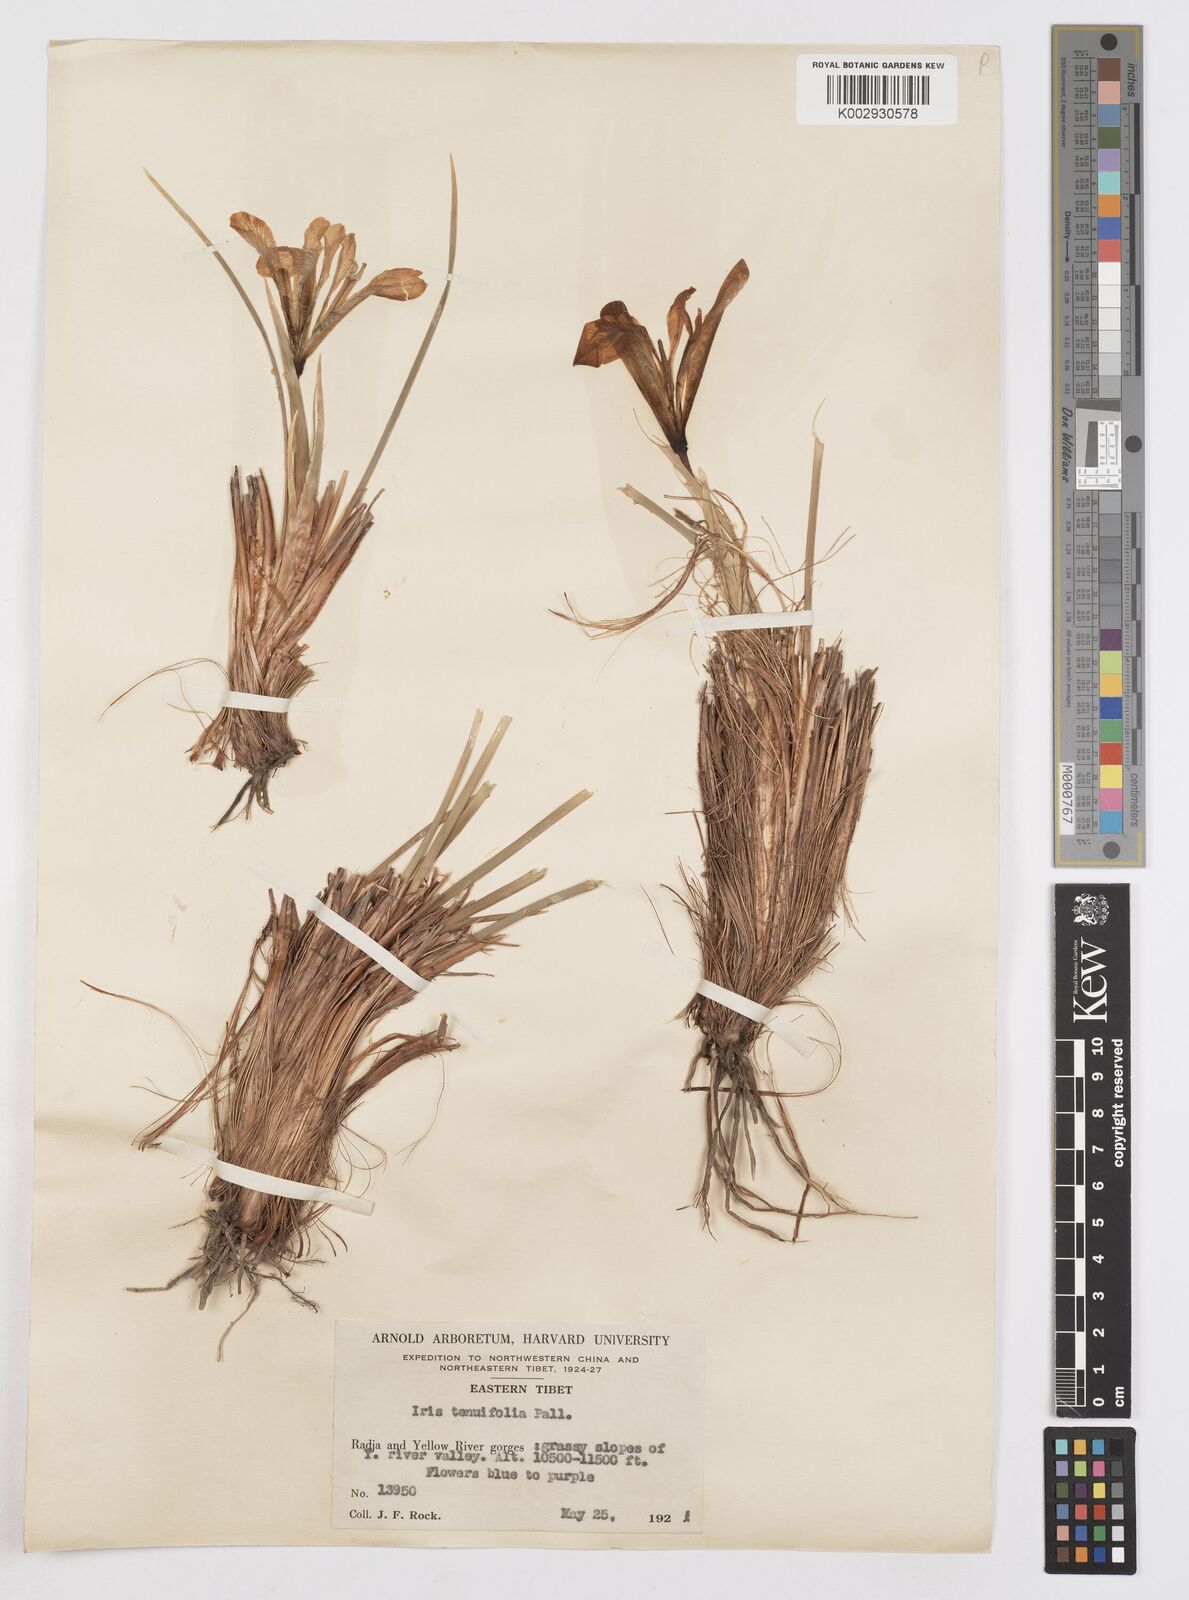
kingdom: Plantae
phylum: Tracheophyta
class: Liliopsida
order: Asparagales
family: Iridaceae
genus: Iris
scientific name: Iris tenuifolia
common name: Slender-leaf iris
